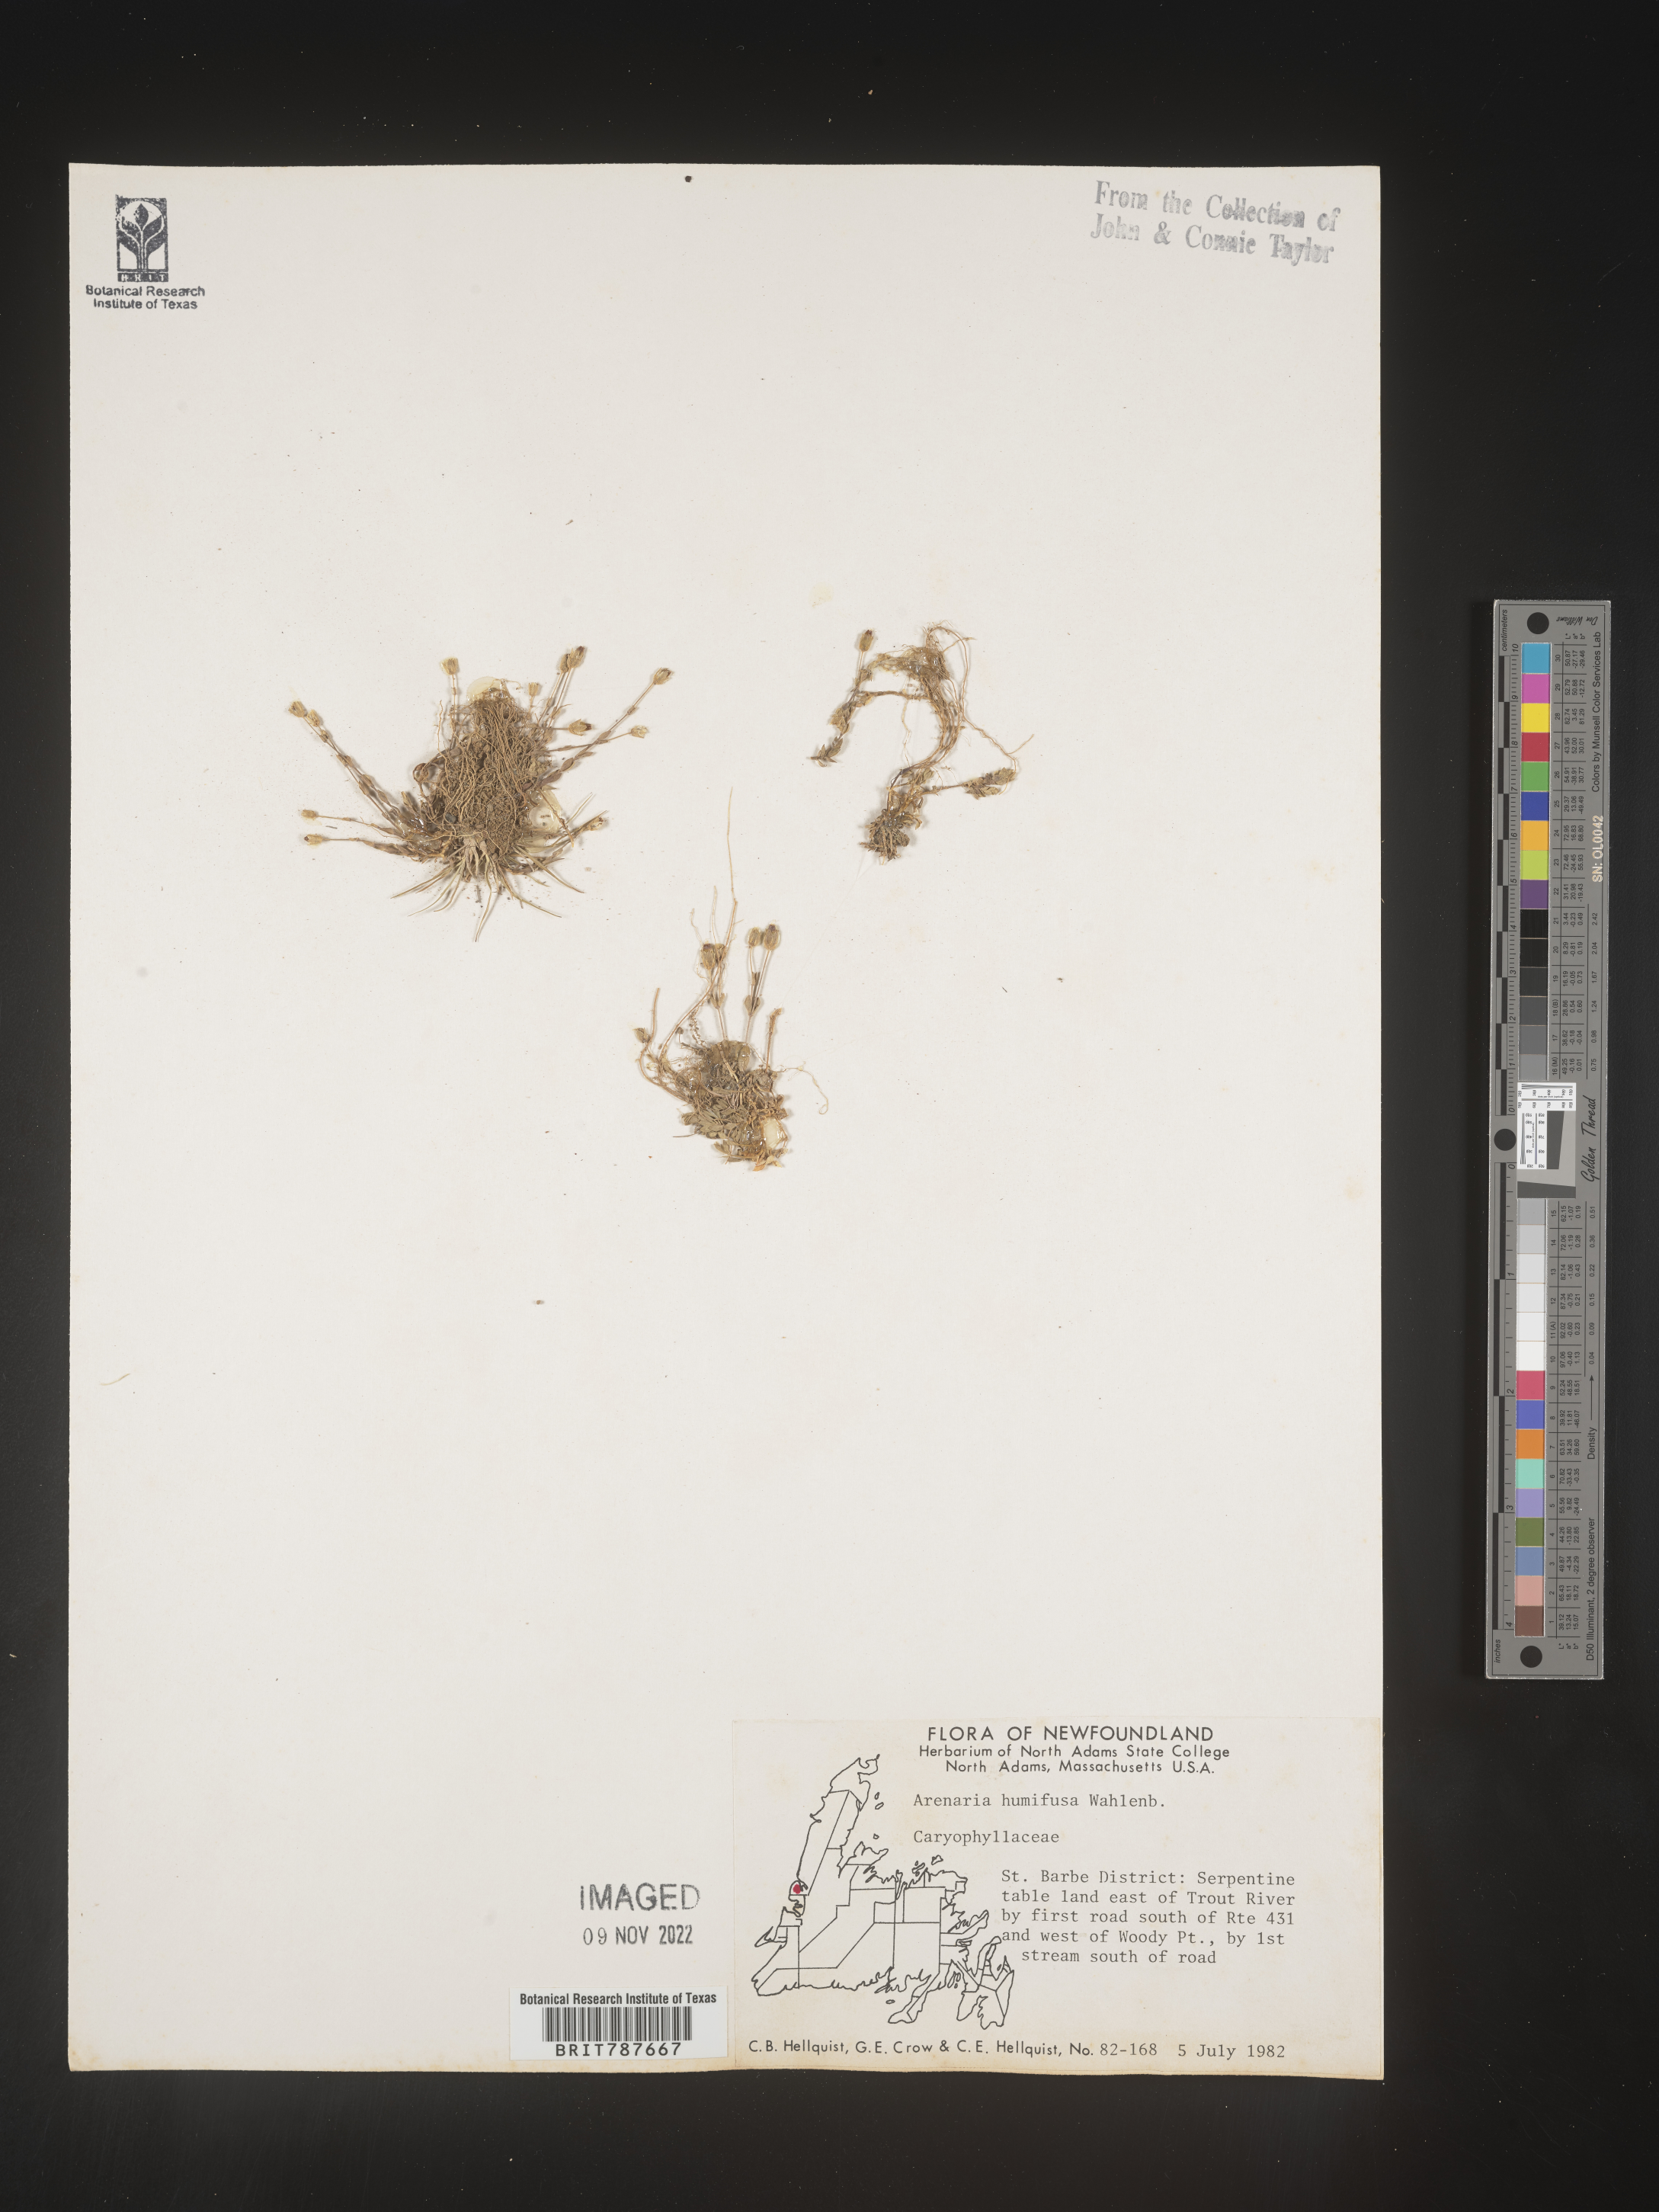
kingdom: Plantae
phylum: Tracheophyta
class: Magnoliopsida
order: Caryophyllales
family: Caryophyllaceae
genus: Arenaria
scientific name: Arenaria
